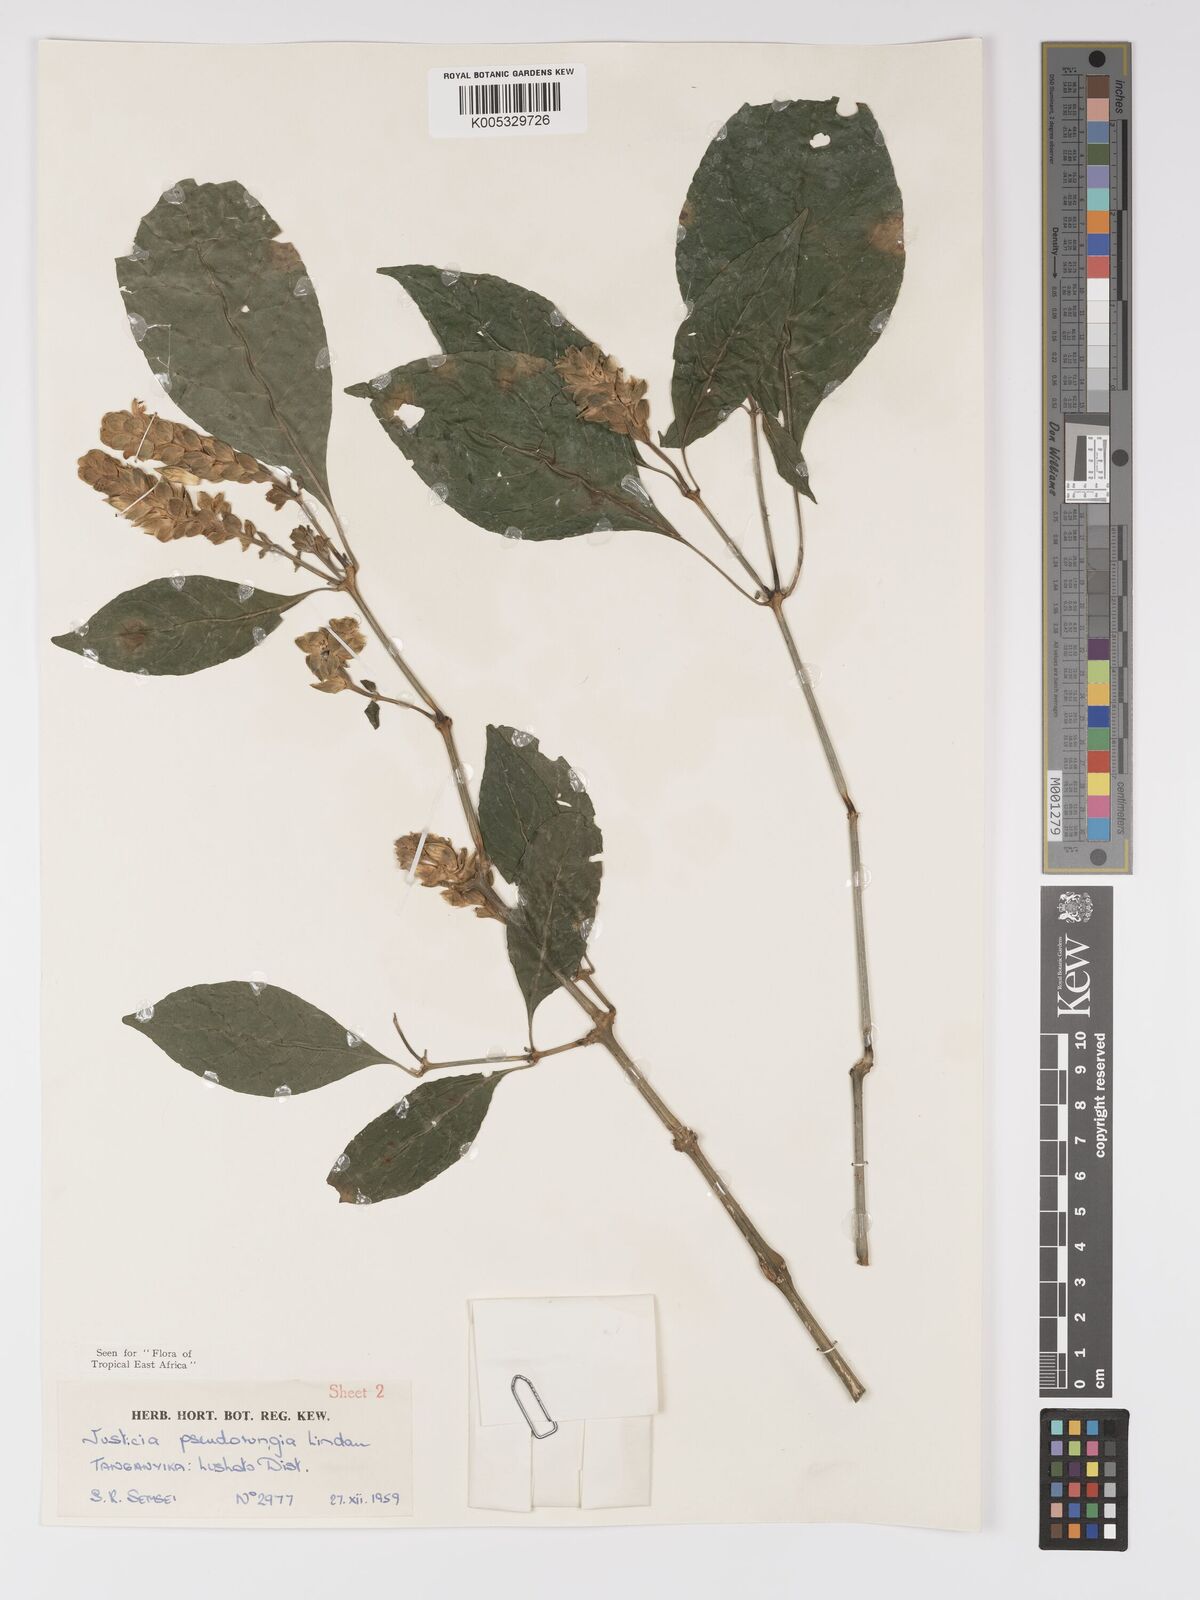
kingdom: Plantae
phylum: Tracheophyta
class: Magnoliopsida
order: Lamiales
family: Acanthaceae
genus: Justicia
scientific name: Justicia pseudorungia
